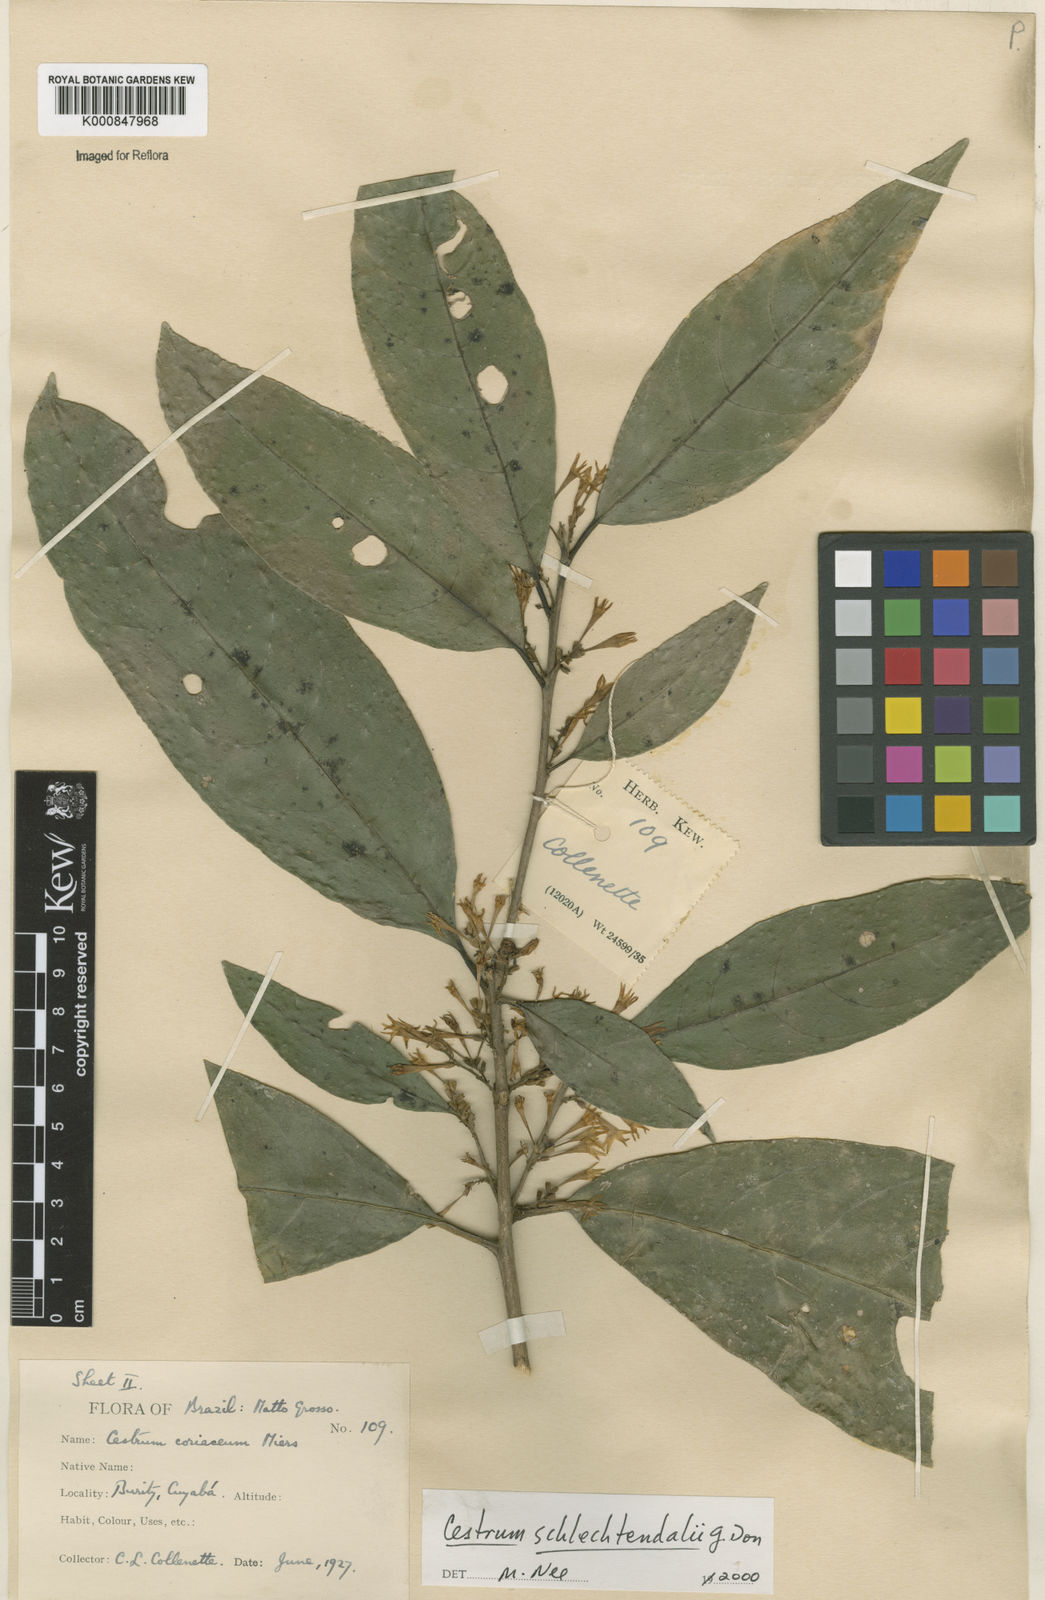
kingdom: Plantae
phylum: Tracheophyta
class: Magnoliopsida
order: Solanales
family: Solanaceae
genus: Cestrum
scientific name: Cestrum schlechtendalii
